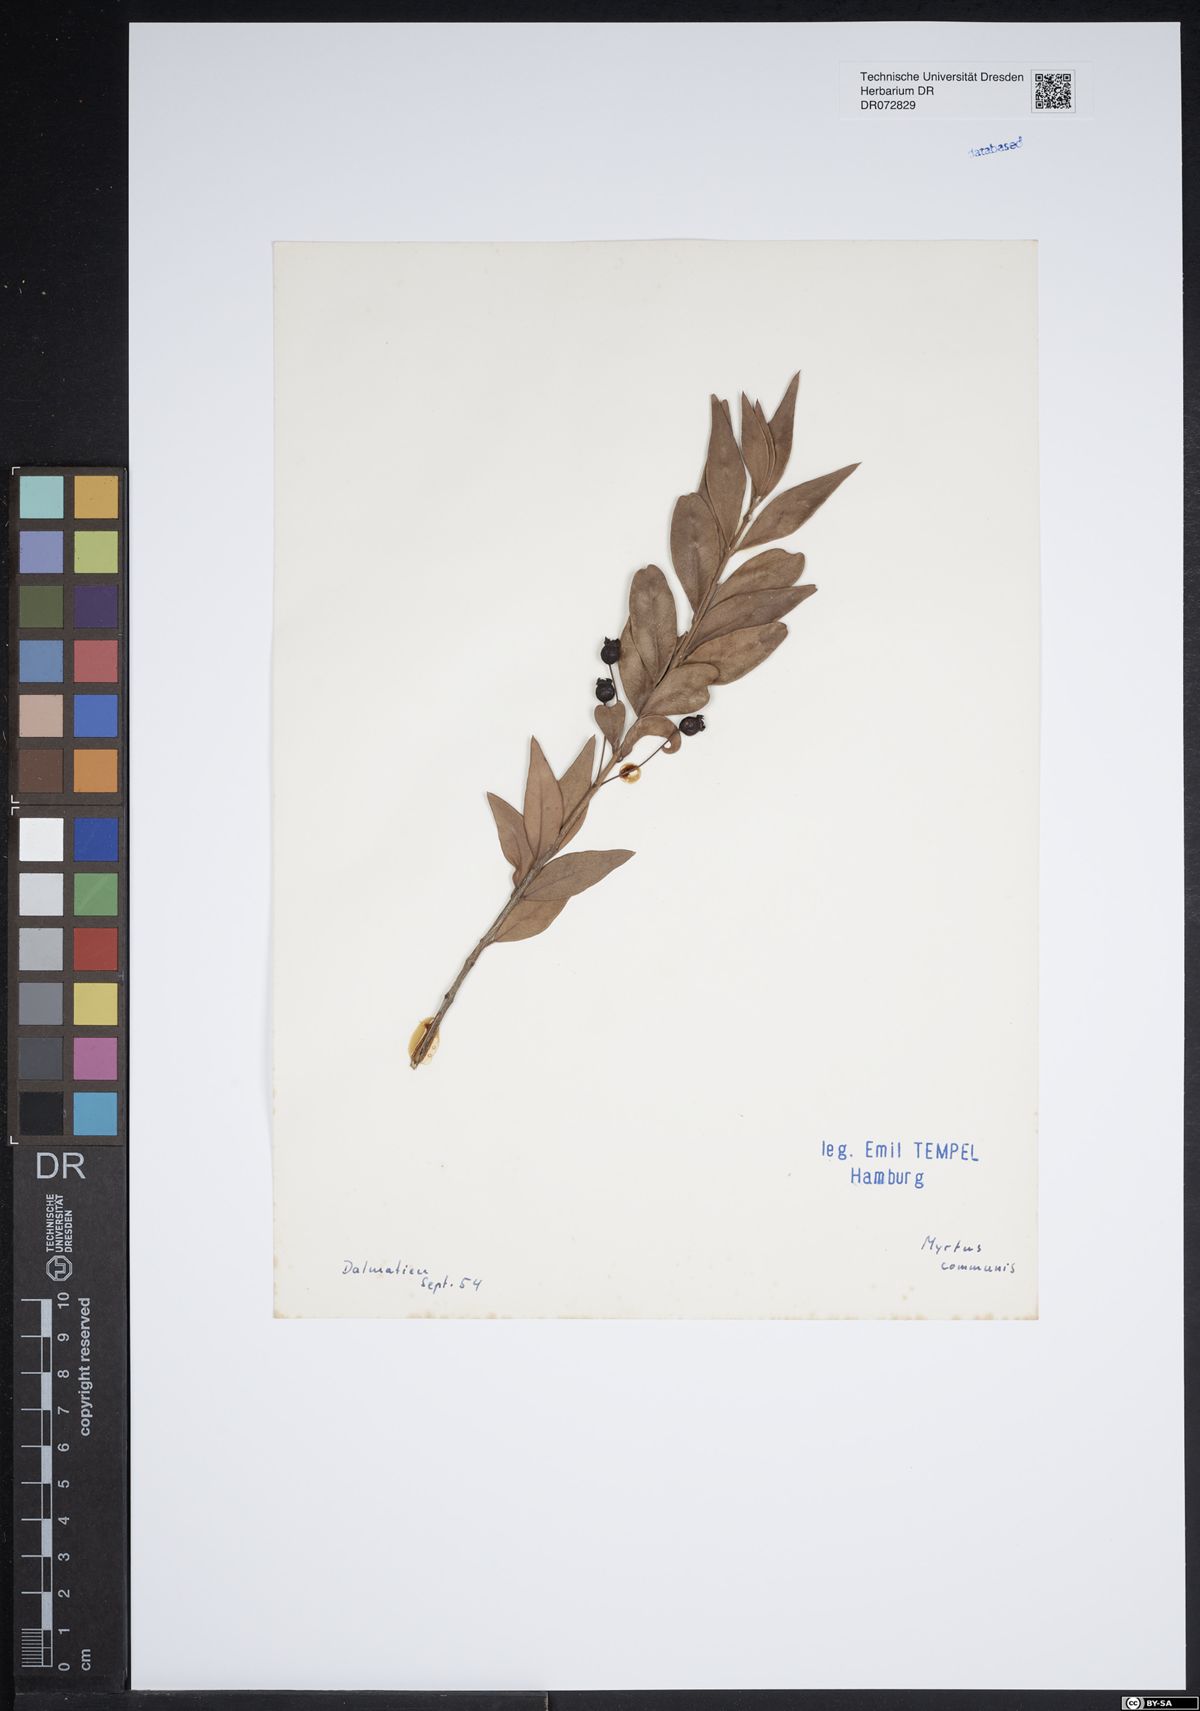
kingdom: Plantae
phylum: Tracheophyta
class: Magnoliopsida
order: Myrtales
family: Myrtaceae
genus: Myrtus
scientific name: Myrtus communis
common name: Myrtle
